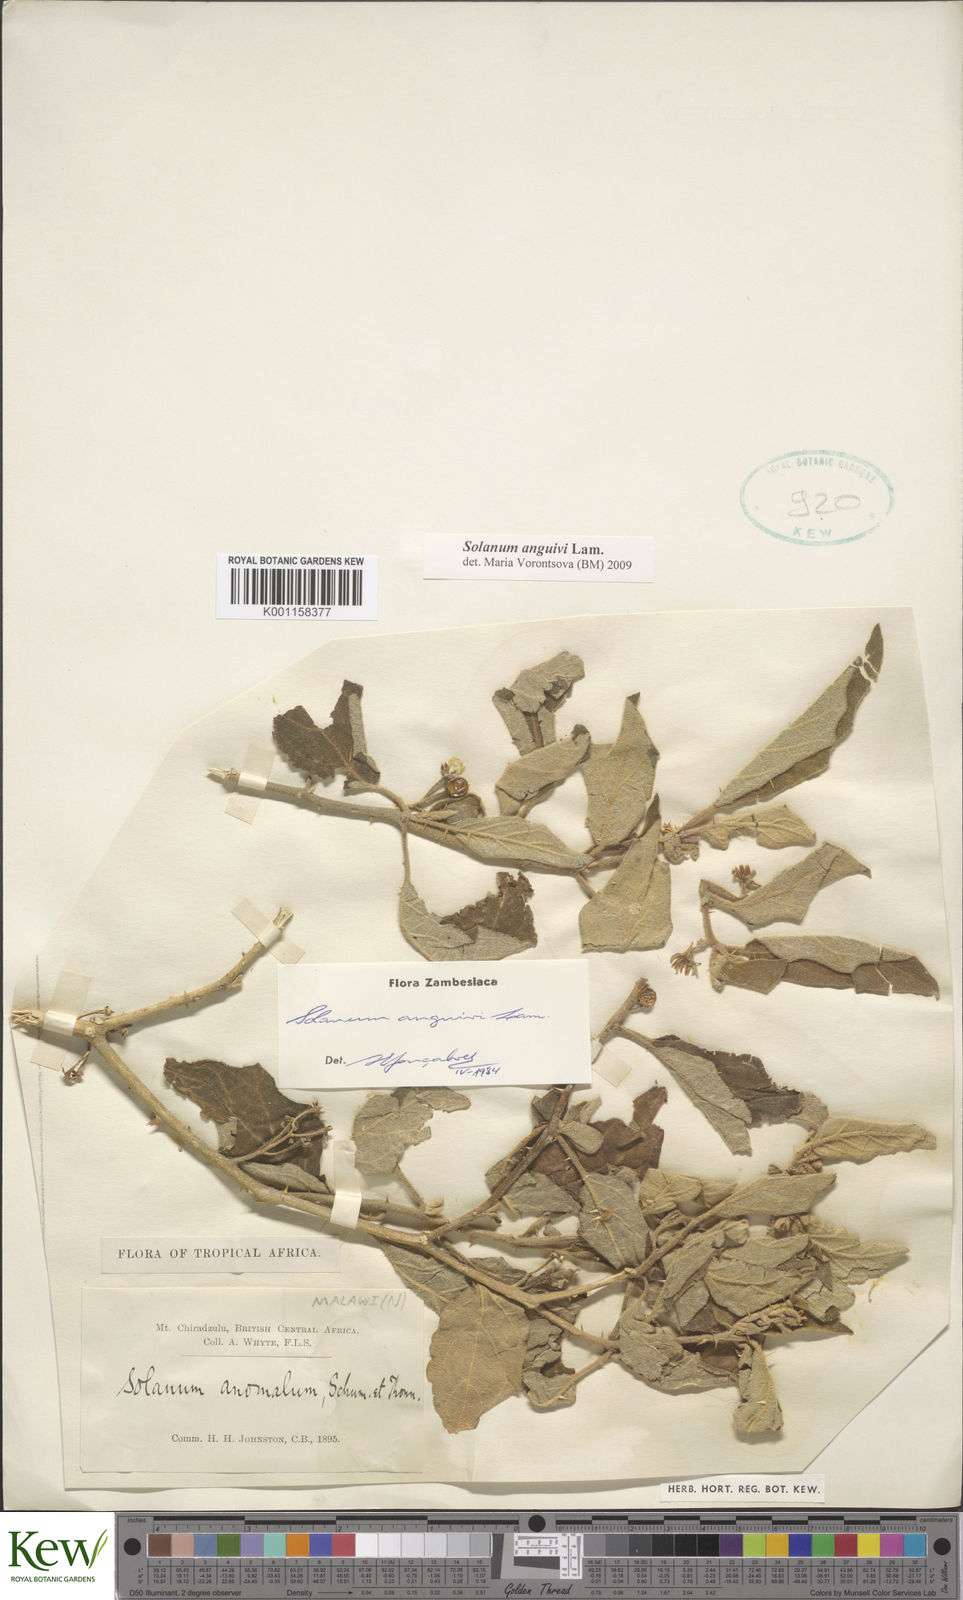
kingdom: Plantae
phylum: Tracheophyta
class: Magnoliopsida
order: Solanales
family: Solanaceae
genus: Solanum
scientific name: Solanum anguivi
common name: Forest bitterberry
